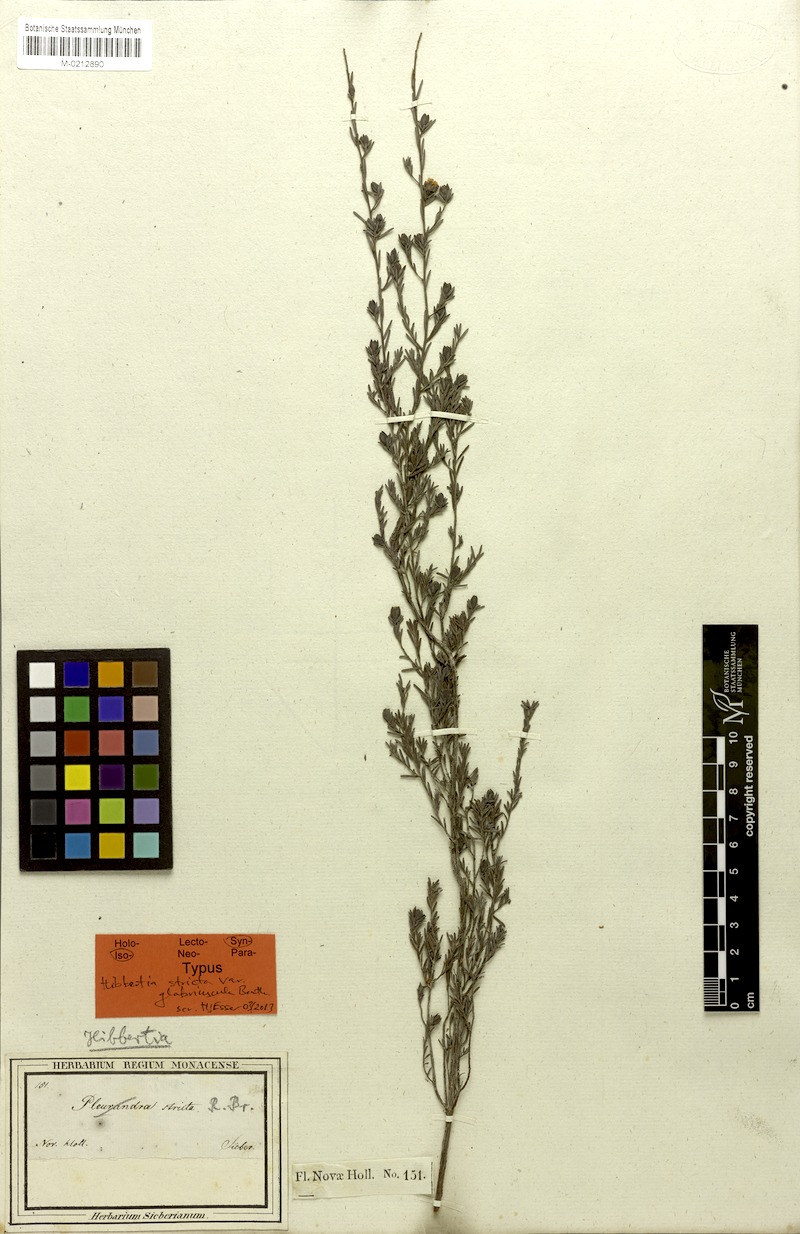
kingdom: Plantae
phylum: Tracheophyta
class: Magnoliopsida
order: Dilleniales
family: Dilleniaceae
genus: Hibbertia
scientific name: Hibbertia stricta
